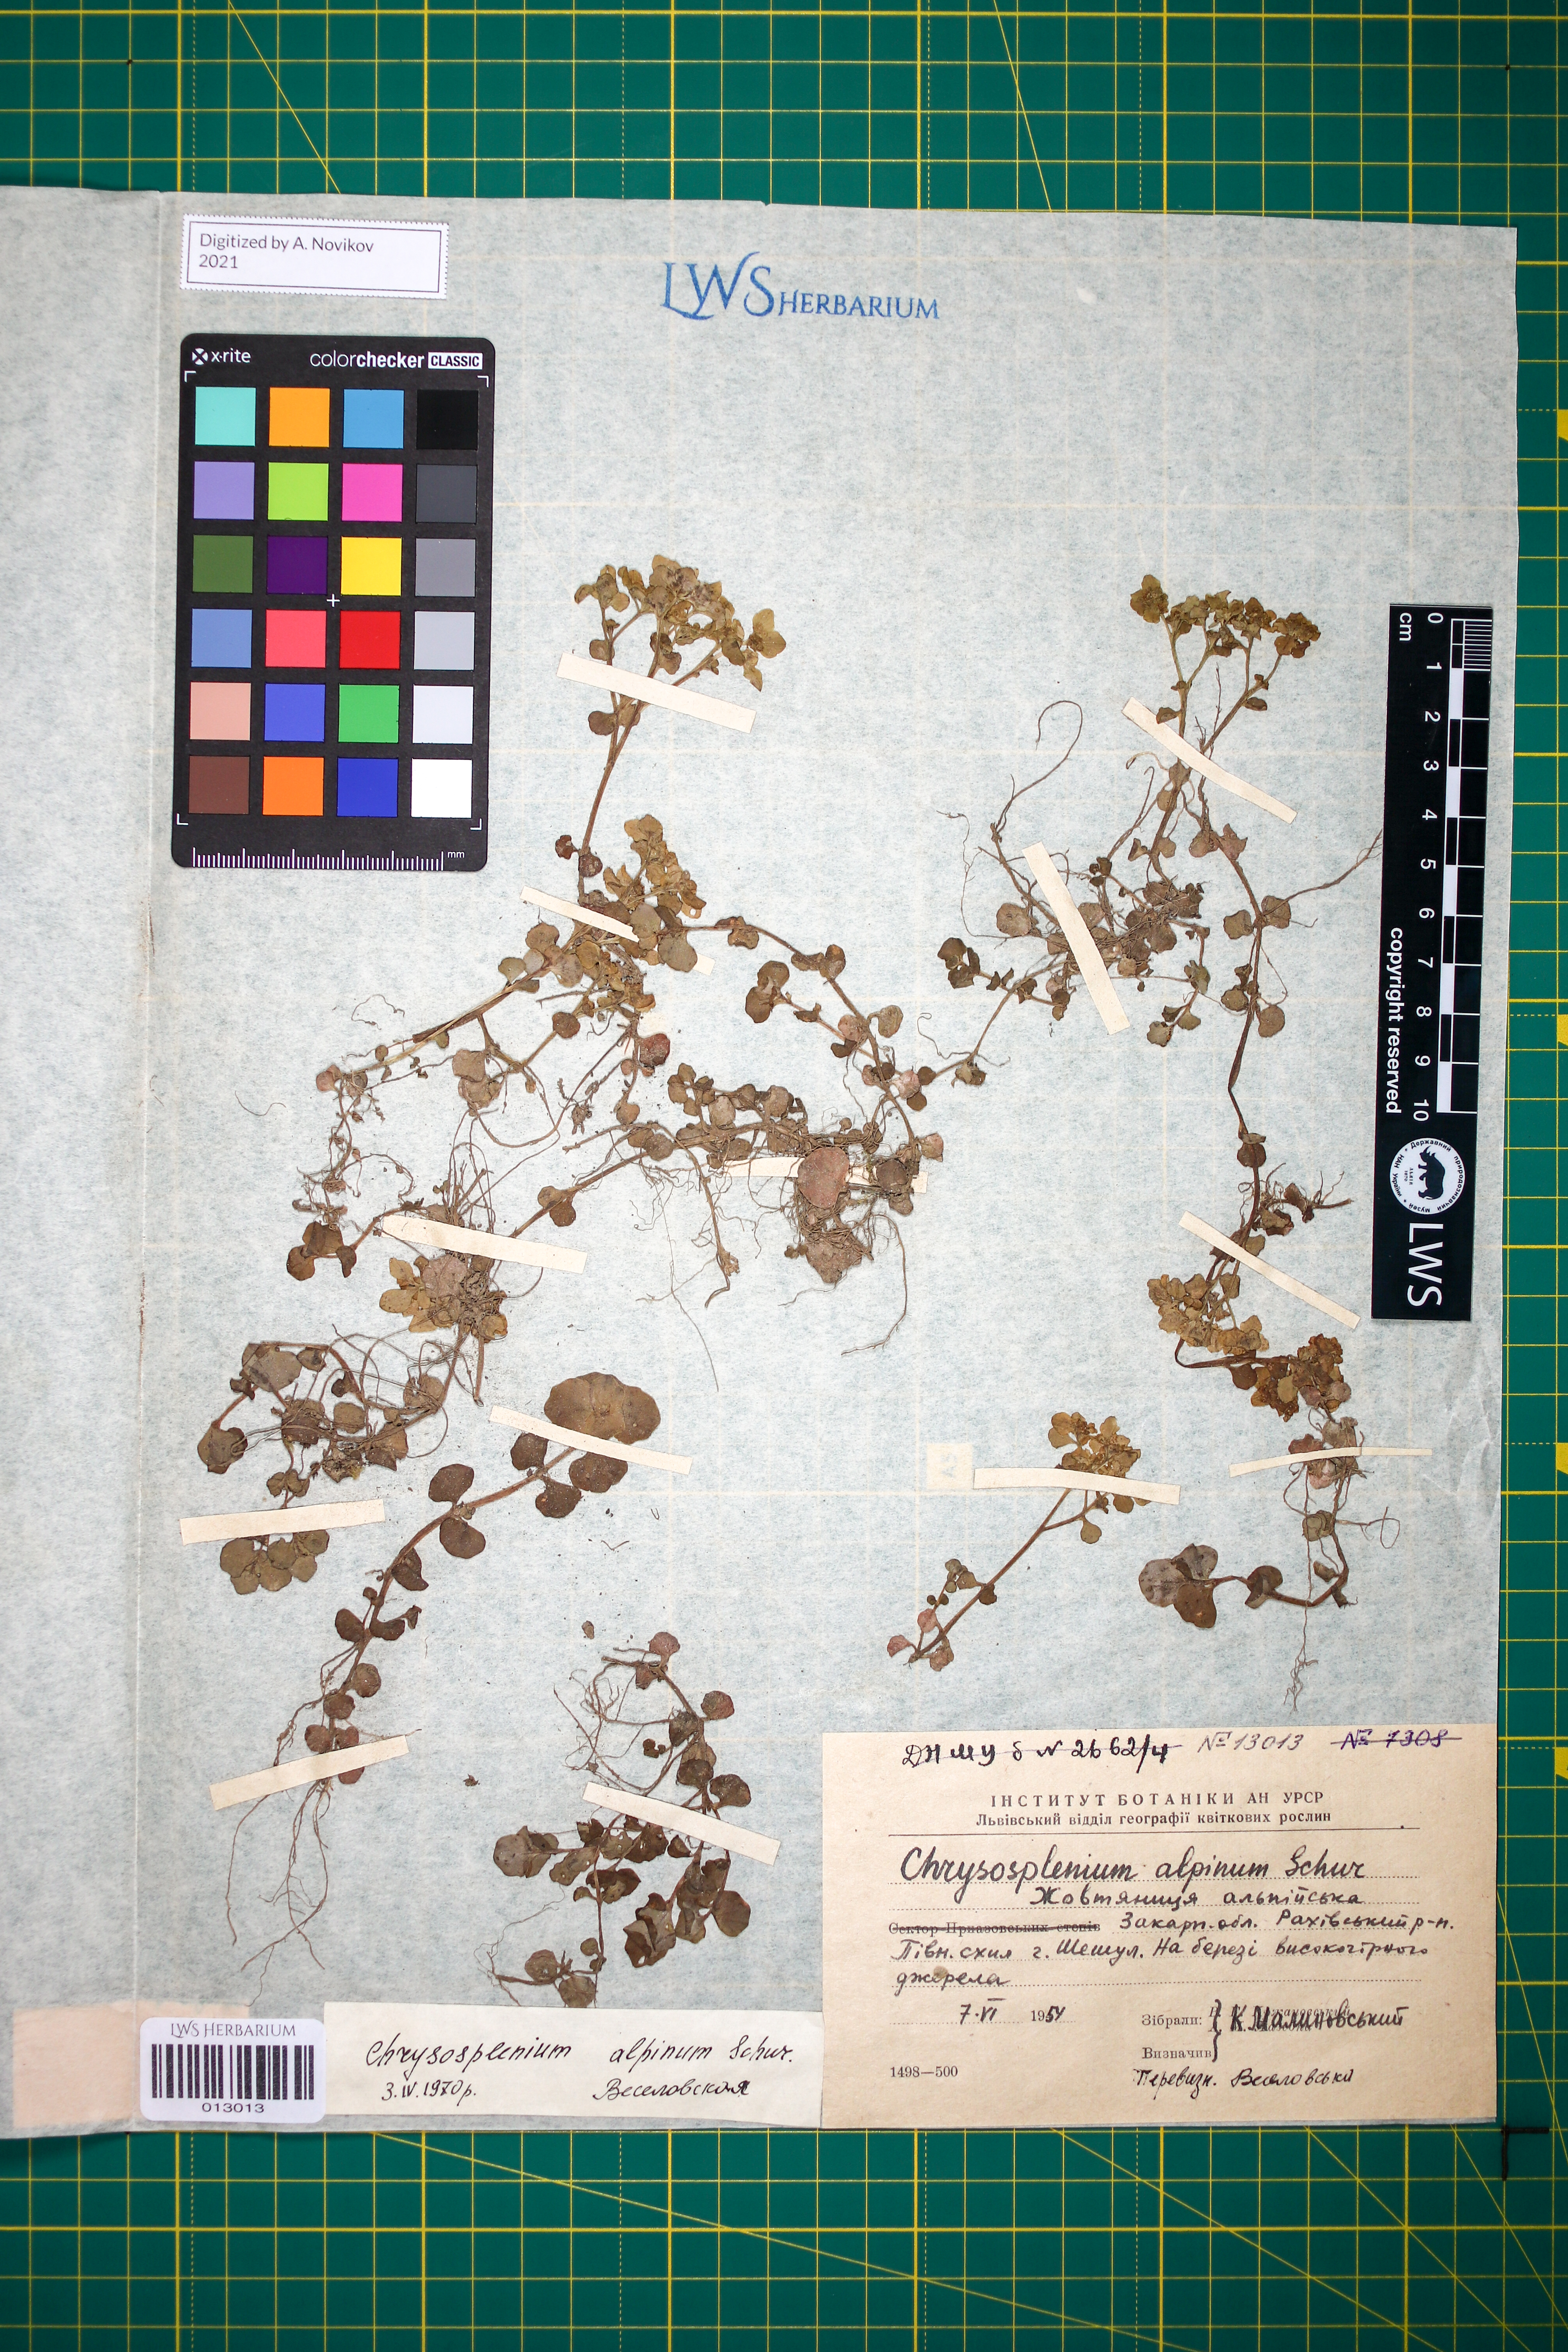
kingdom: Plantae
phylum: Tracheophyta
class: Magnoliopsida
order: Saxifragales
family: Saxifragaceae
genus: Chrysosplenium
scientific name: Chrysosplenium alpinum
